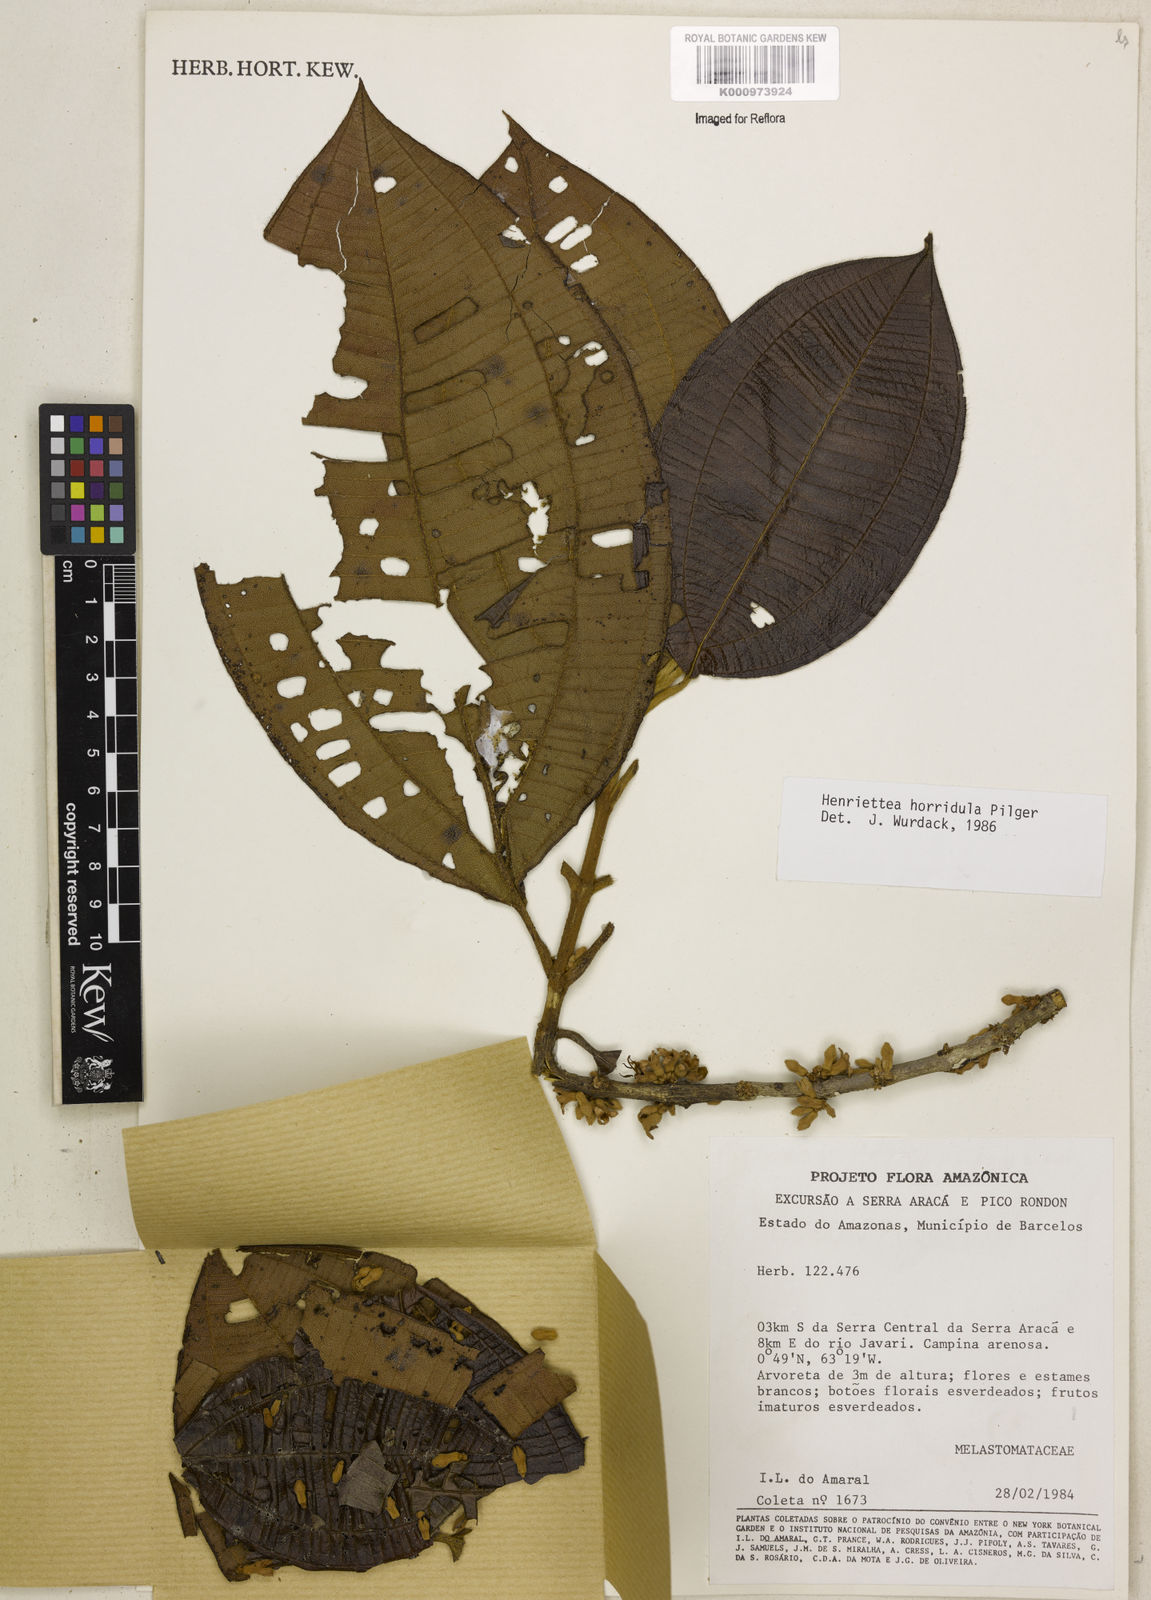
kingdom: Plantae
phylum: Tracheophyta
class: Magnoliopsida
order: Myrtales
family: Melastomataceae
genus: Henriettea
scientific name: Henriettea horridula
